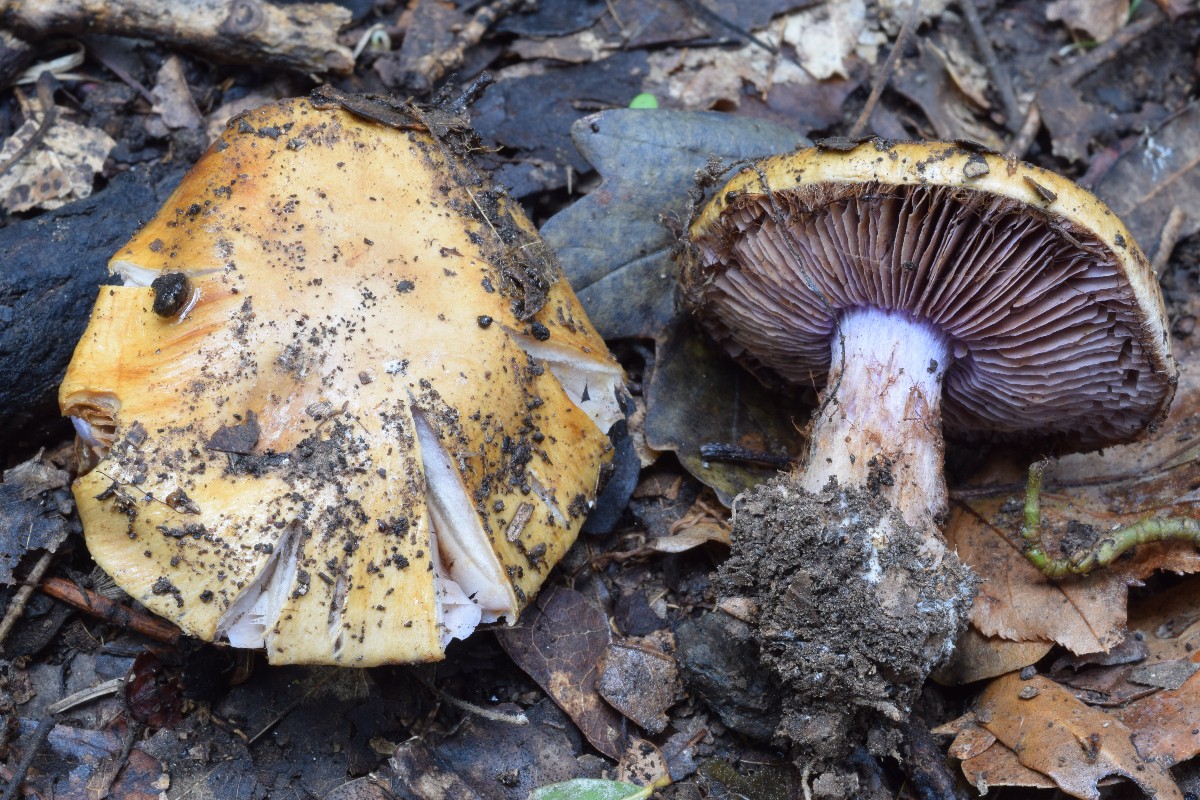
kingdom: Fungi
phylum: Basidiomycota
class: Agaricomycetes
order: Agaricales
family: Cortinariaceae
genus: Calonarius
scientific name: Calonarius vesterholtii
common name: Vesterholts slørhat
